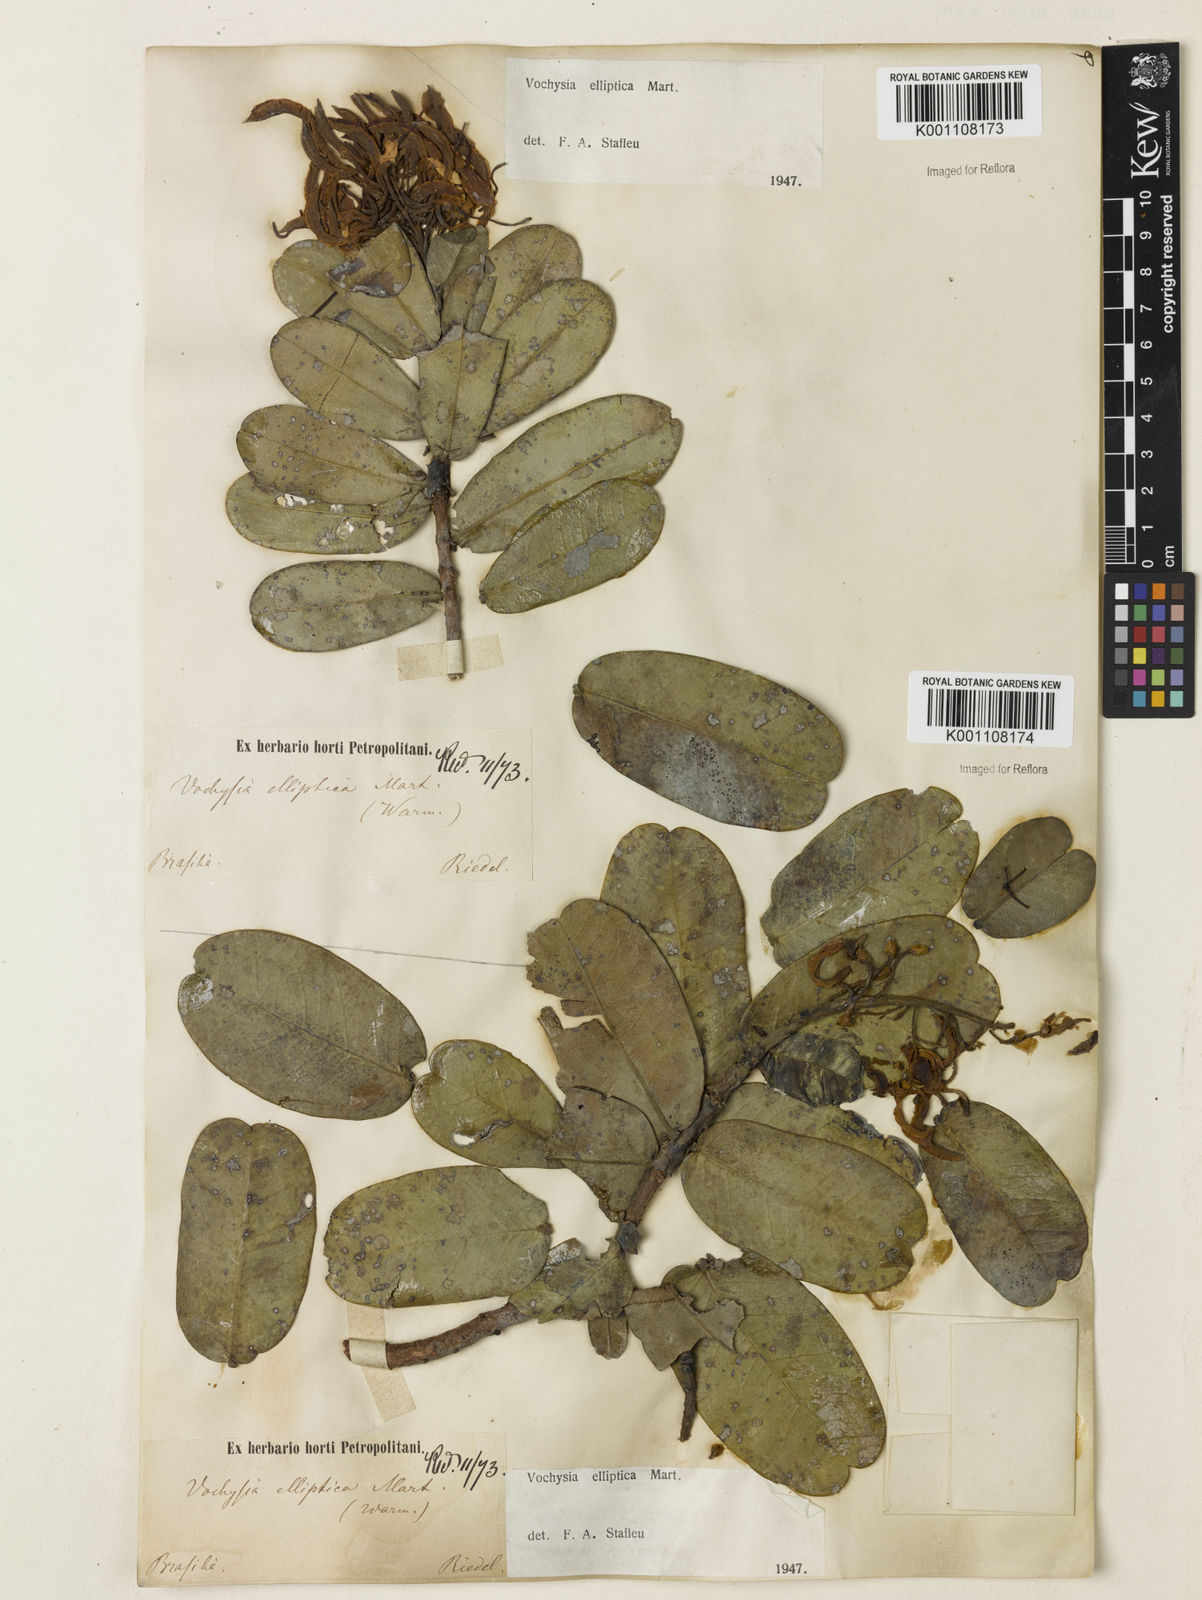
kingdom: Plantae
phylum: Tracheophyta
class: Magnoliopsida
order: Myrtales
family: Vochysiaceae
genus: Vochysia
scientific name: Vochysia elliptica
